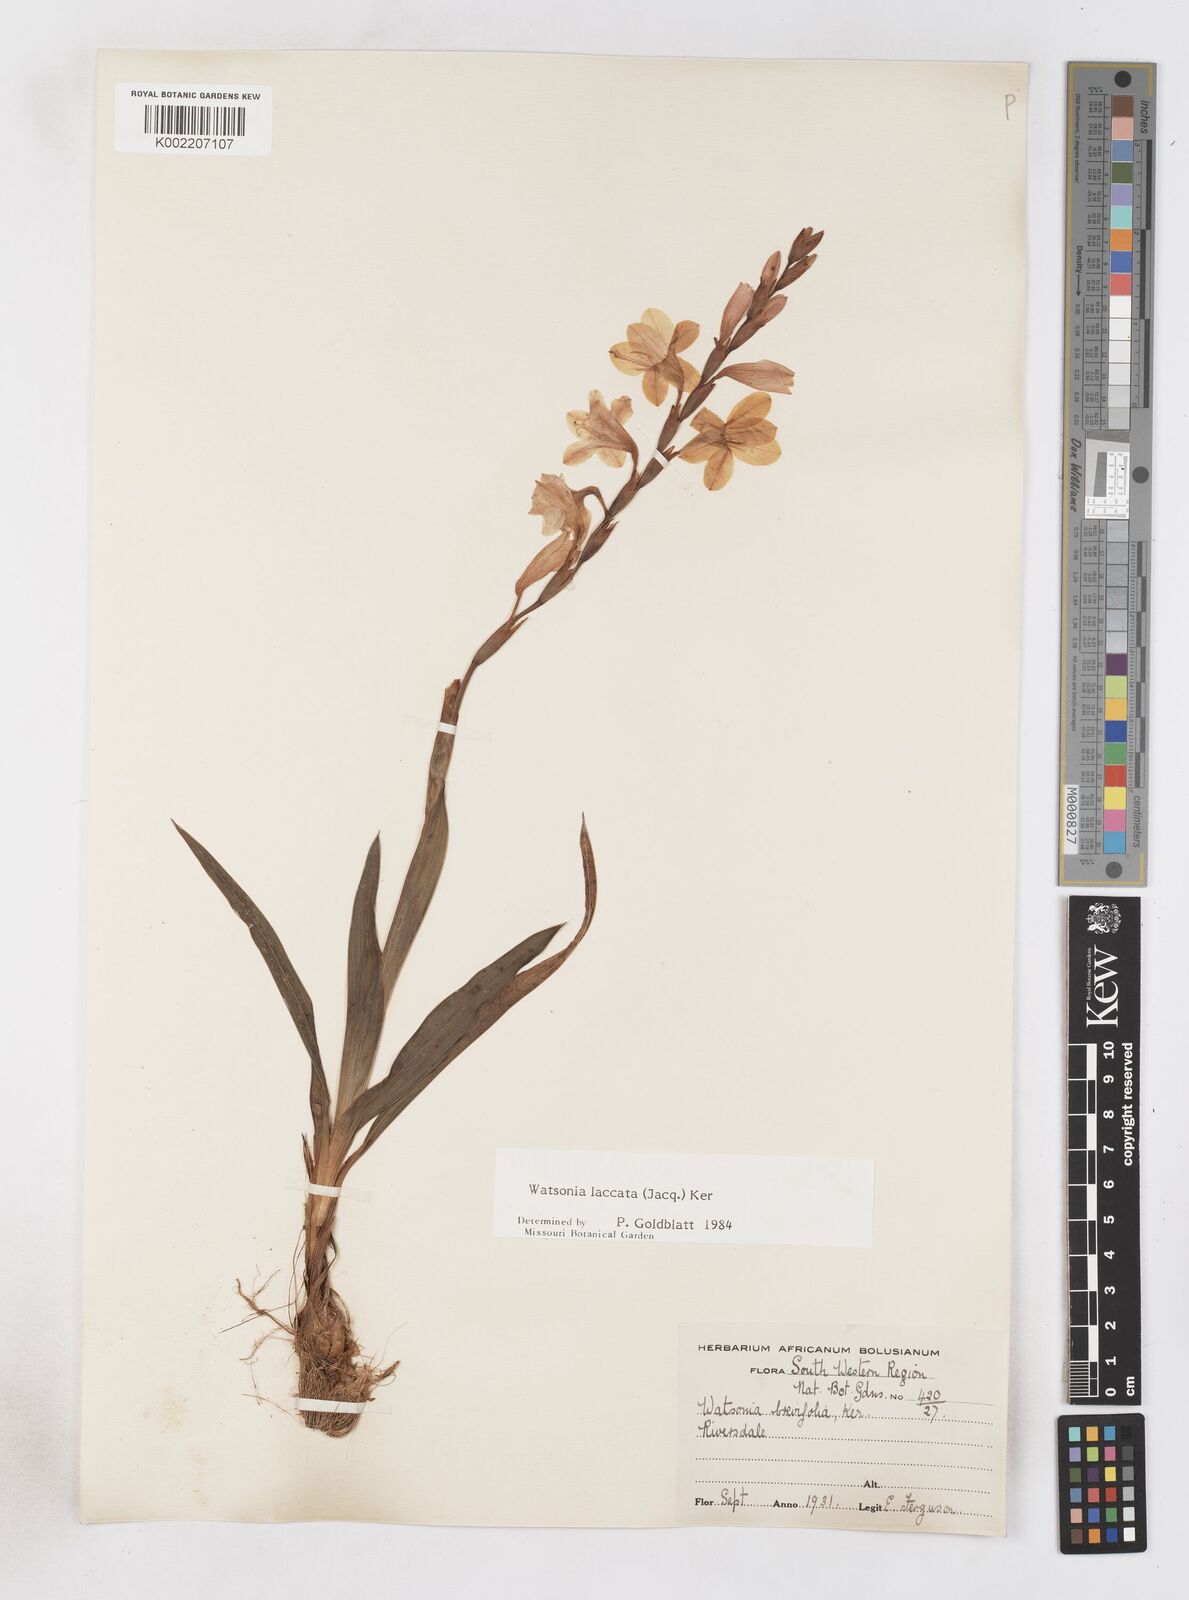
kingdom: Plantae
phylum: Tracheophyta
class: Liliopsida
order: Asparagales
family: Iridaceae
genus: Watsonia
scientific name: Watsonia laccata
